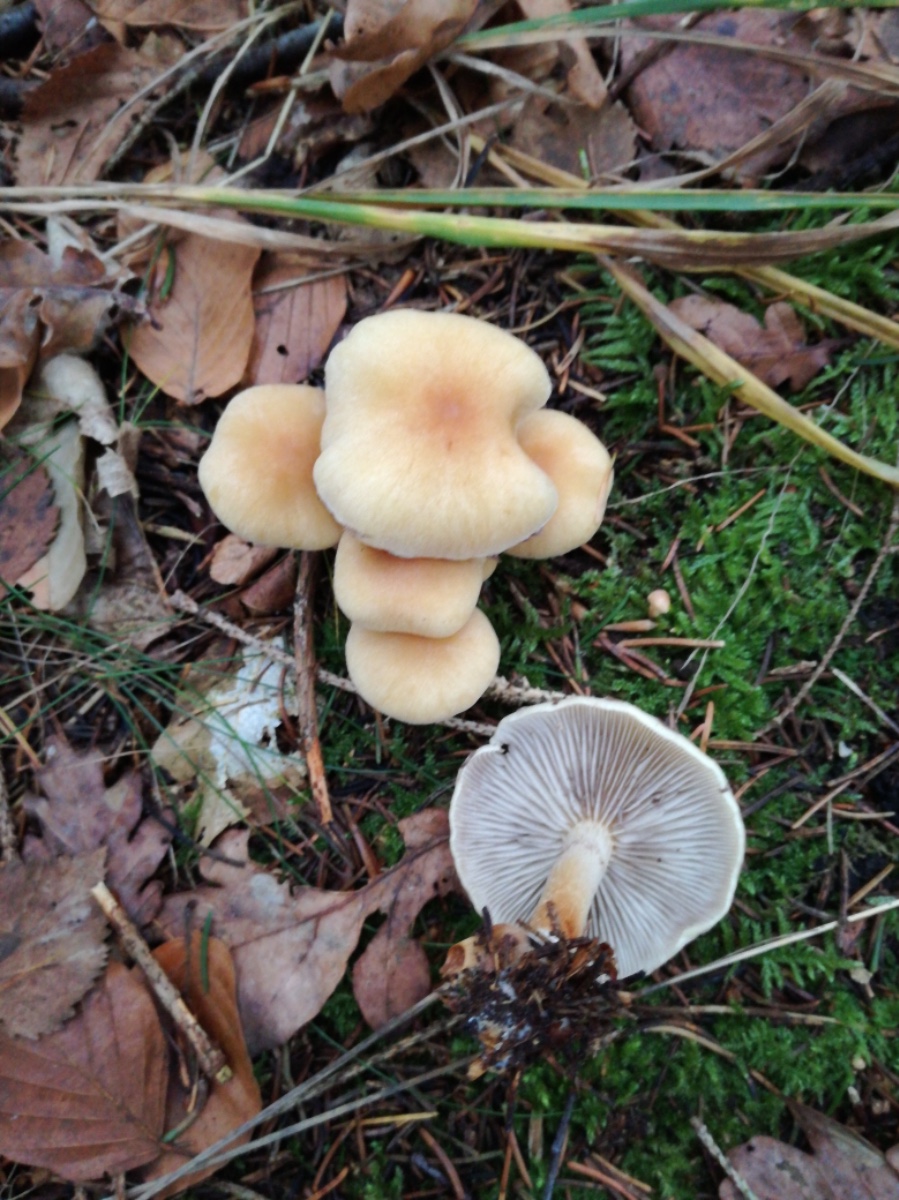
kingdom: Fungi
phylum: Basidiomycota
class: Agaricomycetes
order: Agaricales
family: Strophariaceae
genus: Hypholoma
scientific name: Hypholoma capnoides
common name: gran-svovlhat
